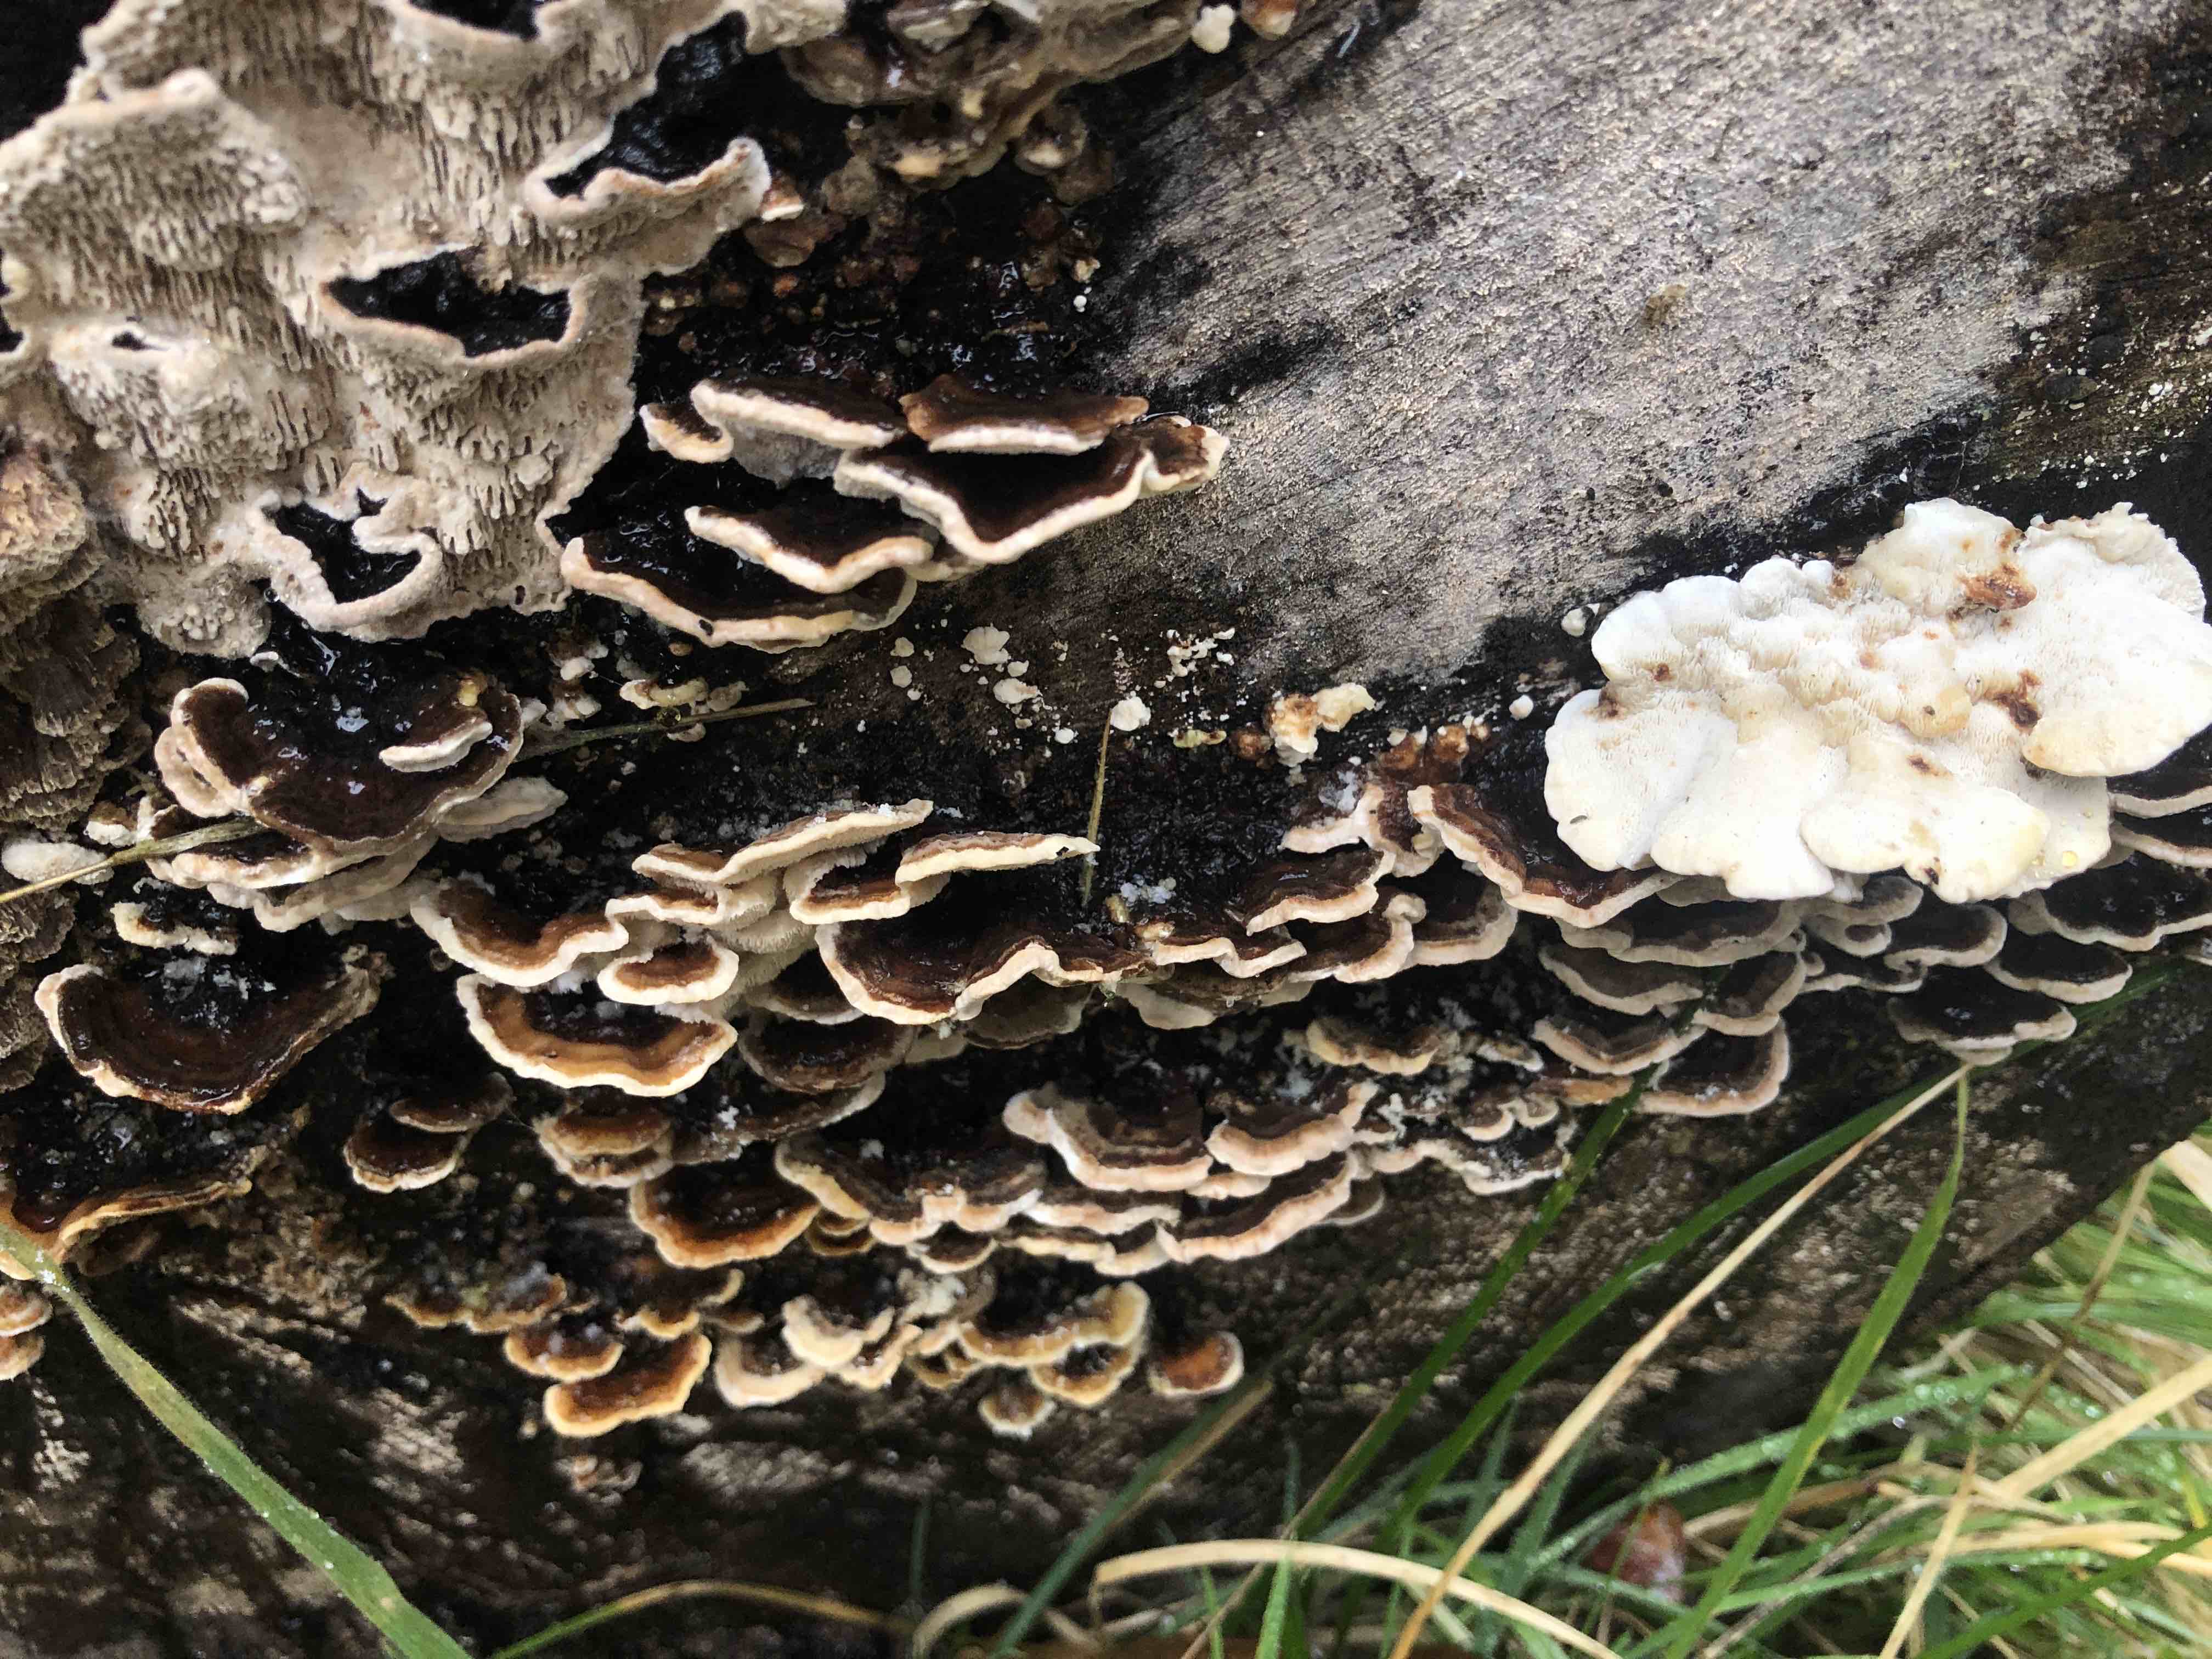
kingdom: Fungi
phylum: Basidiomycota
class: Agaricomycetes
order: Polyporales
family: Polyporaceae
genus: Trametes
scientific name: Trametes versicolor
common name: broget læderporesvamp
